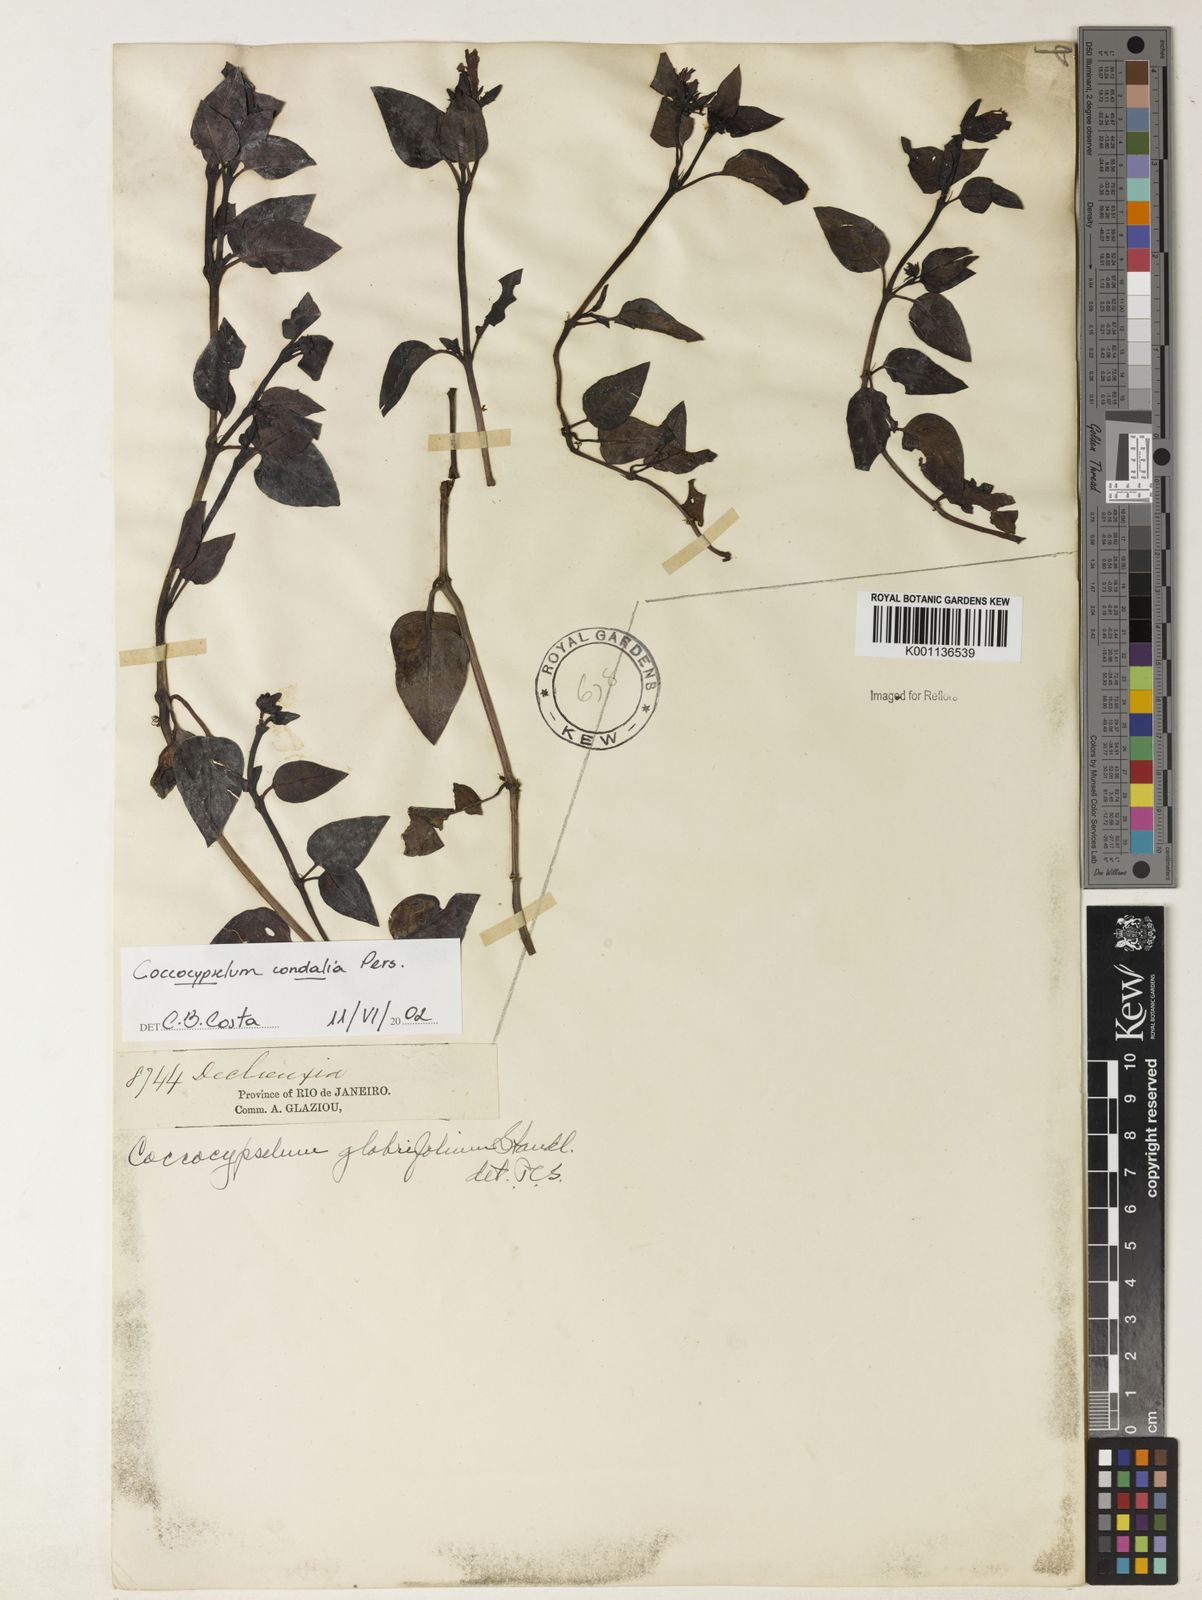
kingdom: Plantae
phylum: Tracheophyta
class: Magnoliopsida
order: Gentianales
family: Rubiaceae
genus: Coccocypselum
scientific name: Coccocypselum condalia
